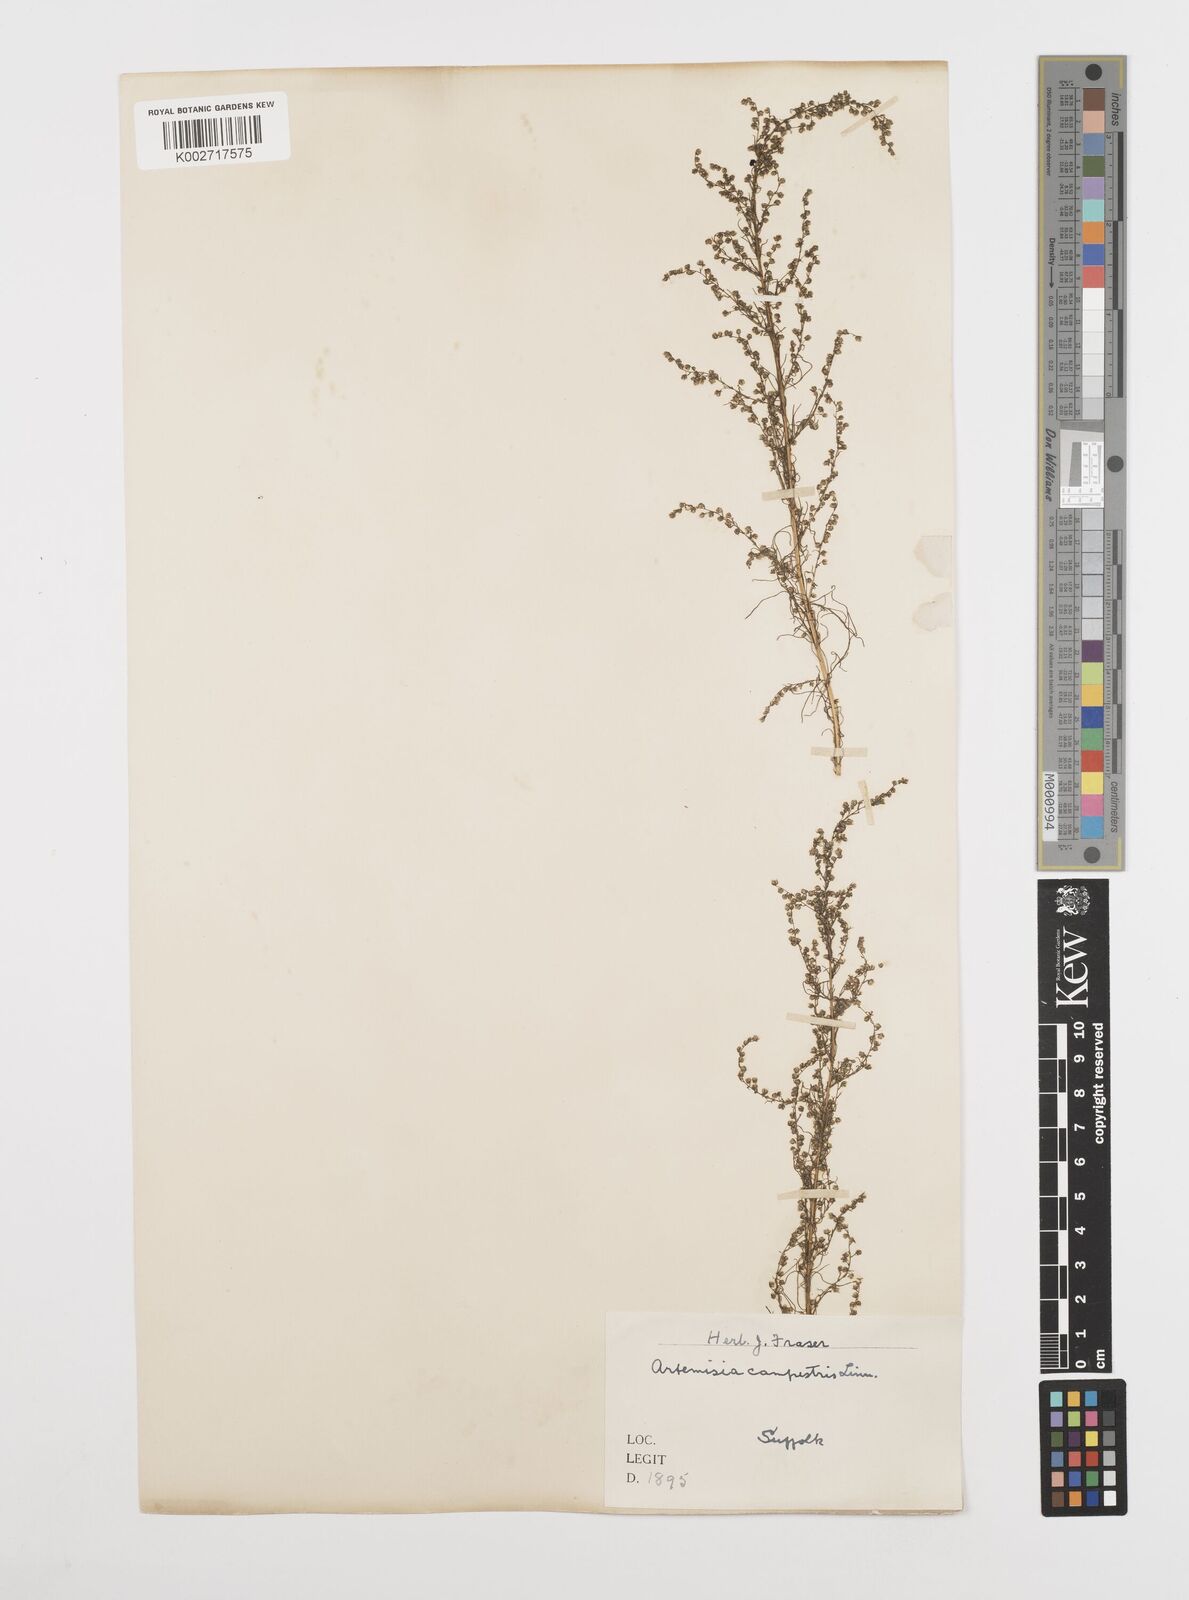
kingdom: Plantae
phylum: Tracheophyta
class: Magnoliopsida
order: Asterales
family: Asteraceae
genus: Artemisia
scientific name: Artemisia campestris
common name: Field wormwood
